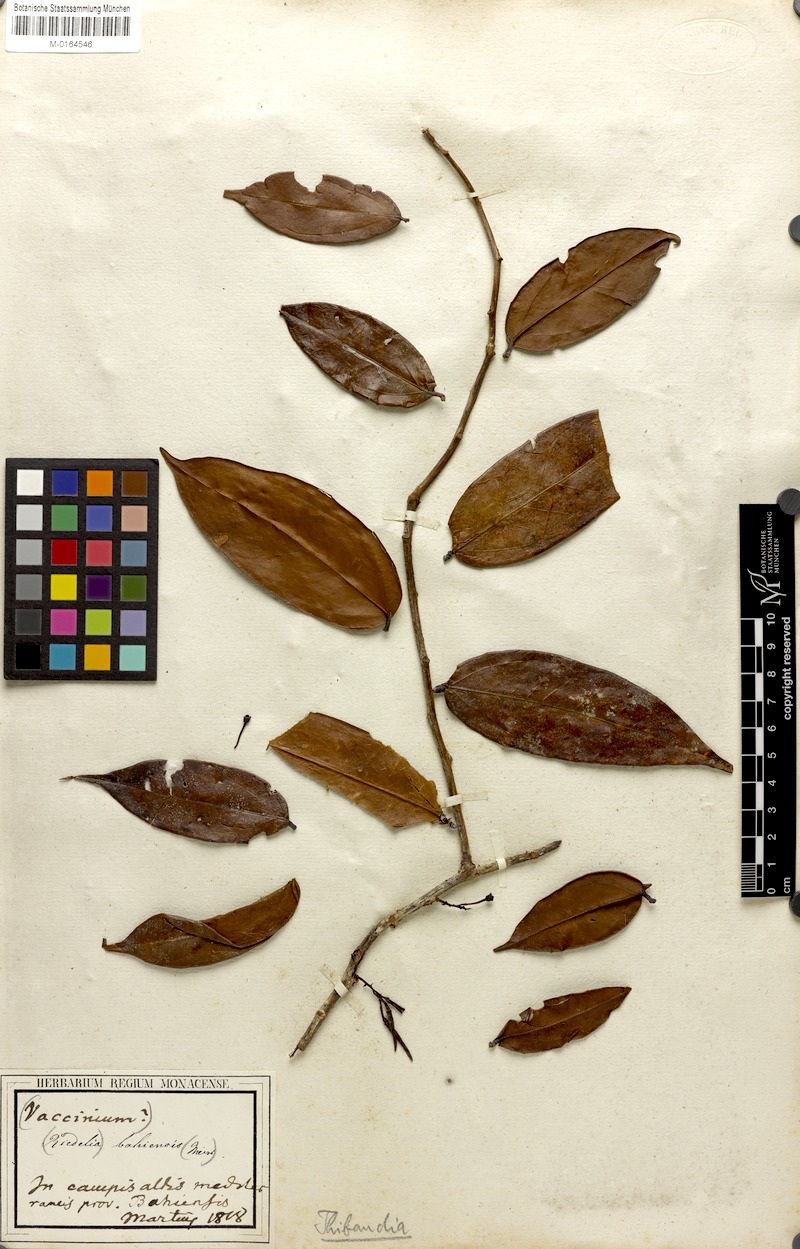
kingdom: Plantae
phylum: Tracheophyta
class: Magnoliopsida
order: Ericales
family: Ericaceae
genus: Satyria
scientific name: Satyria panurensis
